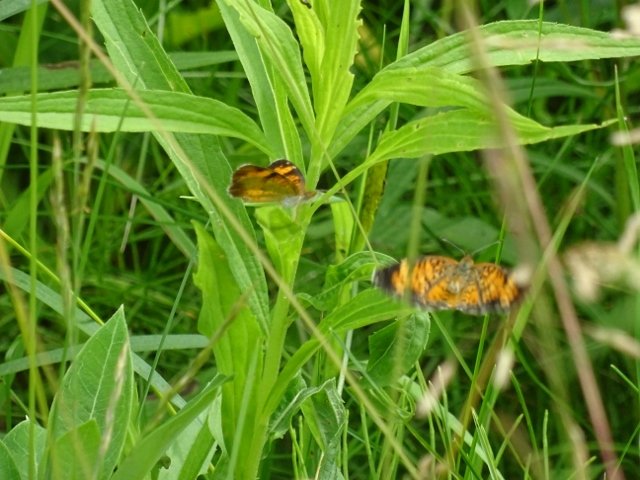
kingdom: Animalia
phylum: Arthropoda
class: Insecta
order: Lepidoptera
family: Nymphalidae
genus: Phyciodes
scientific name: Phyciodes tharos
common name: Pearl Crescent
